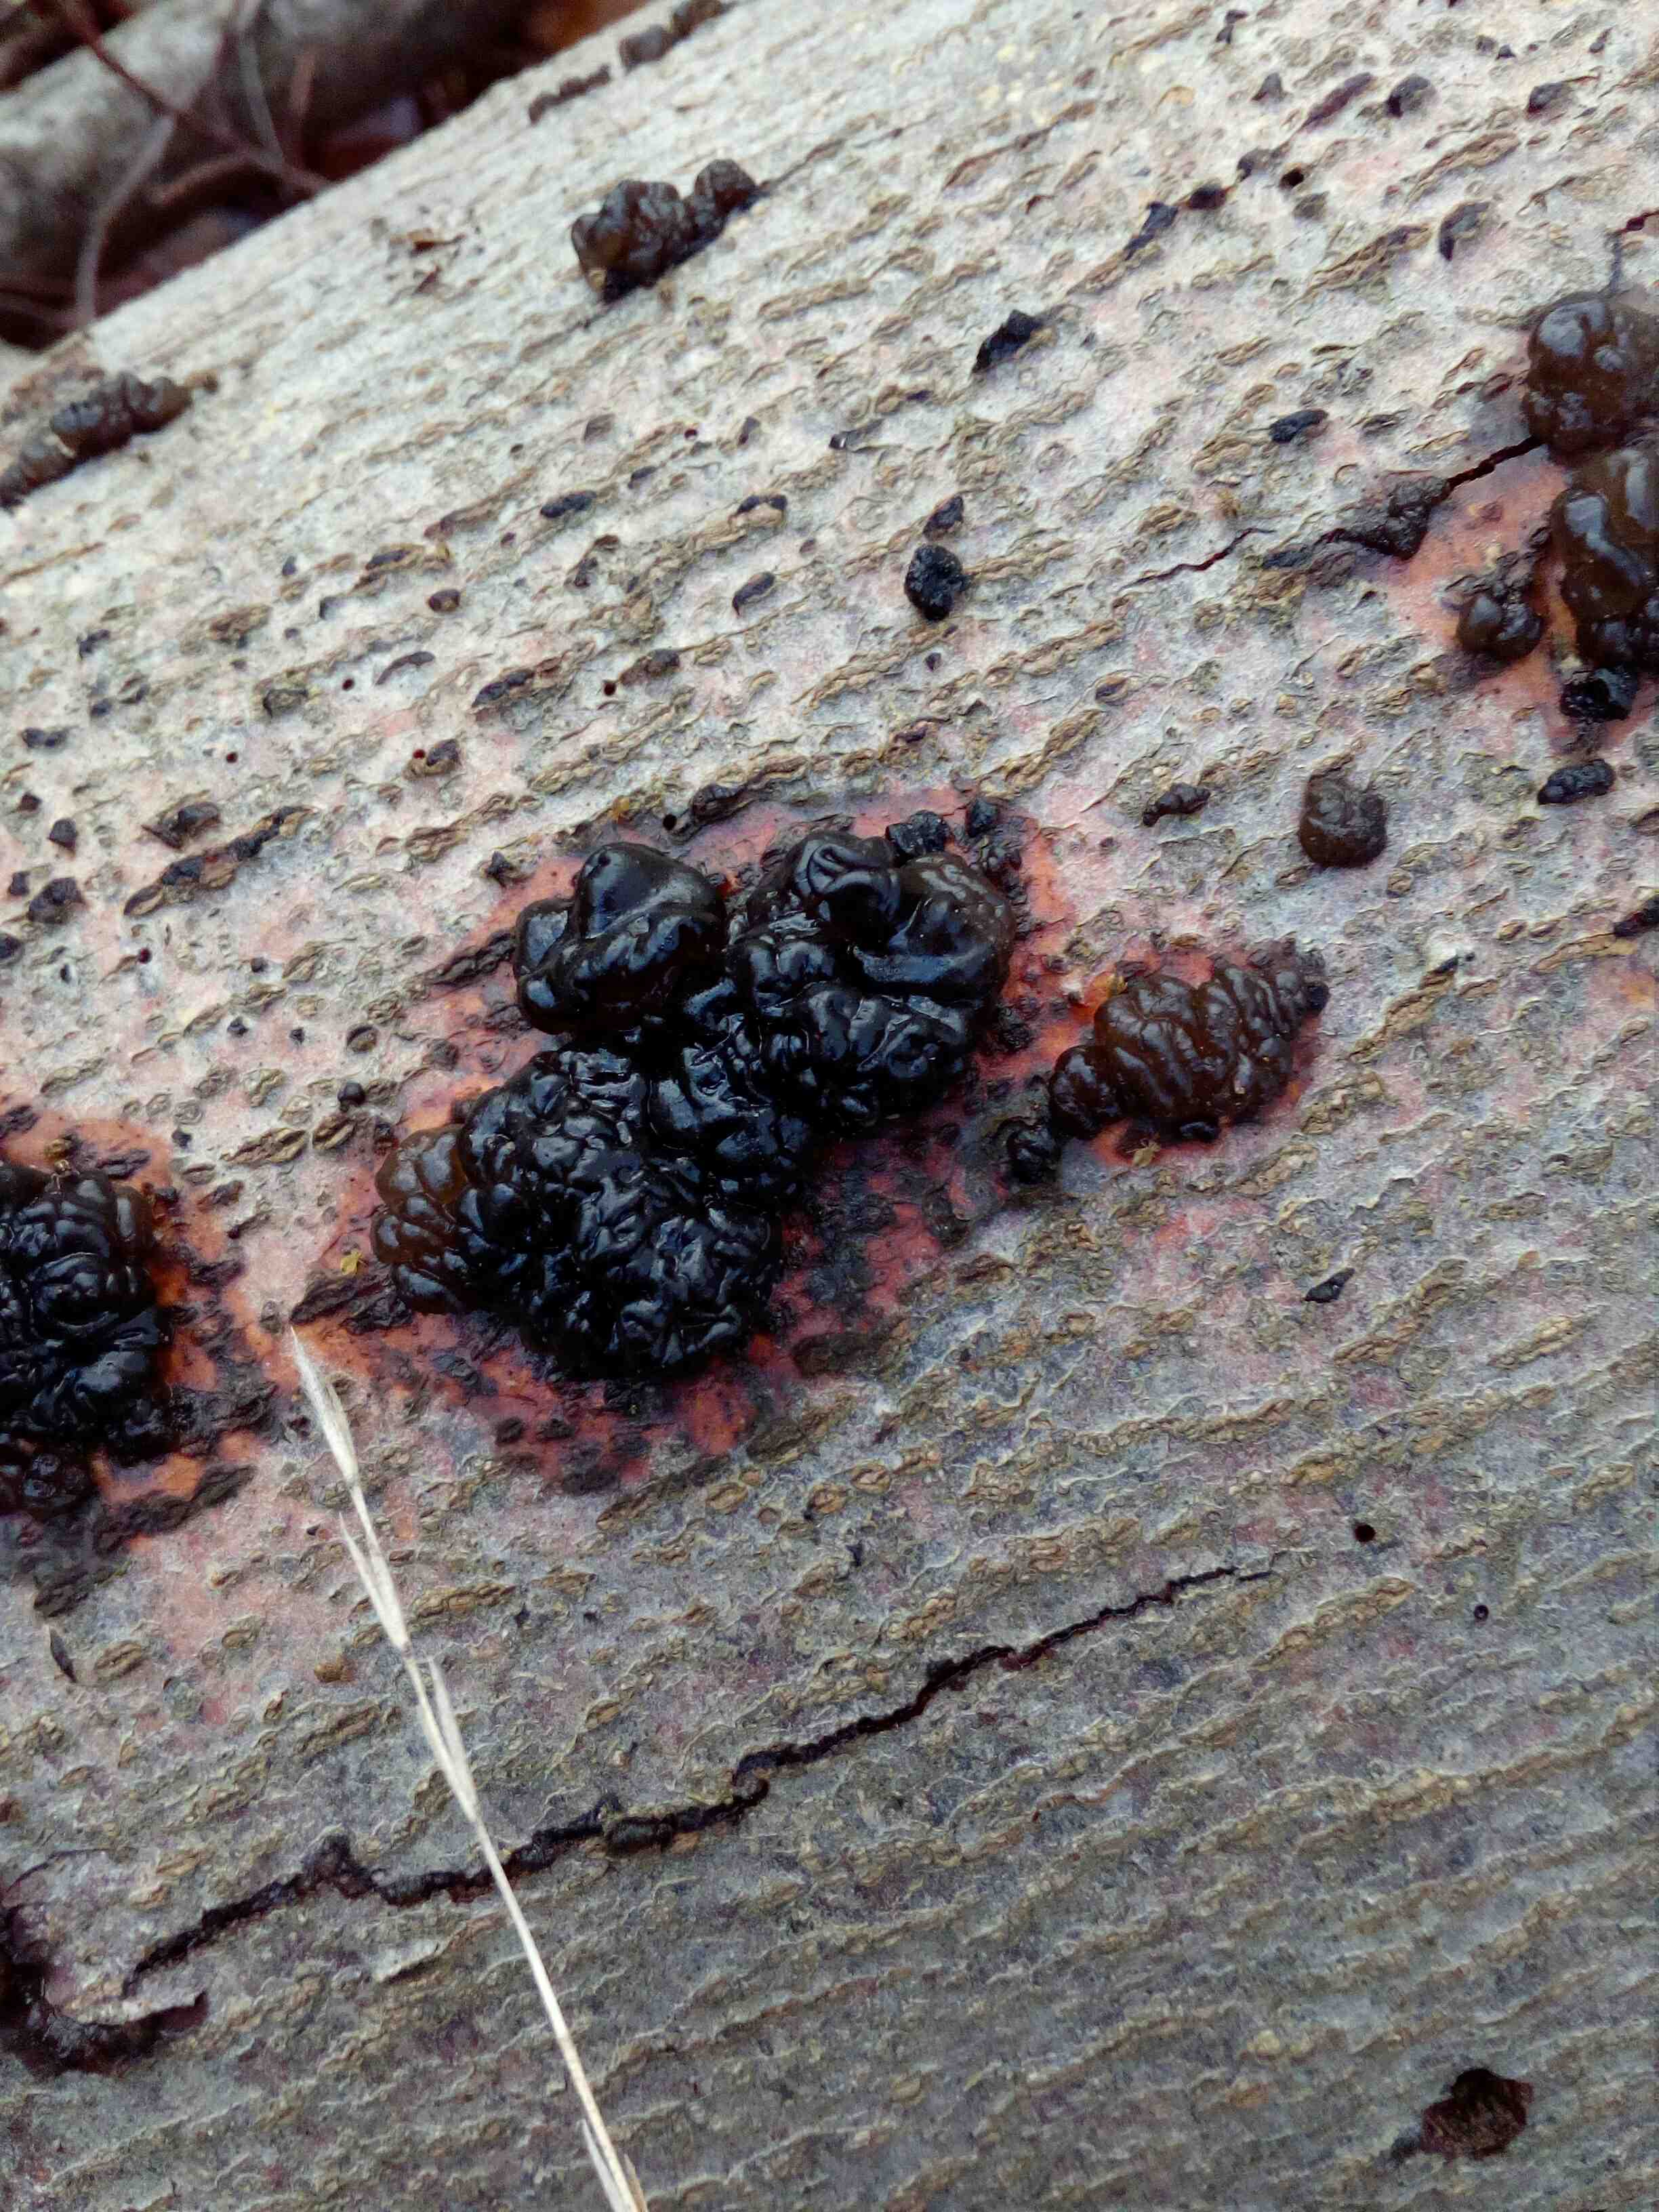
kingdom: Fungi
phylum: Basidiomycota
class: Agaricomycetes
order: Auriculariales
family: Auriculariaceae
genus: Exidia
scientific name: Exidia nigricans
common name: almindelig bævretop
